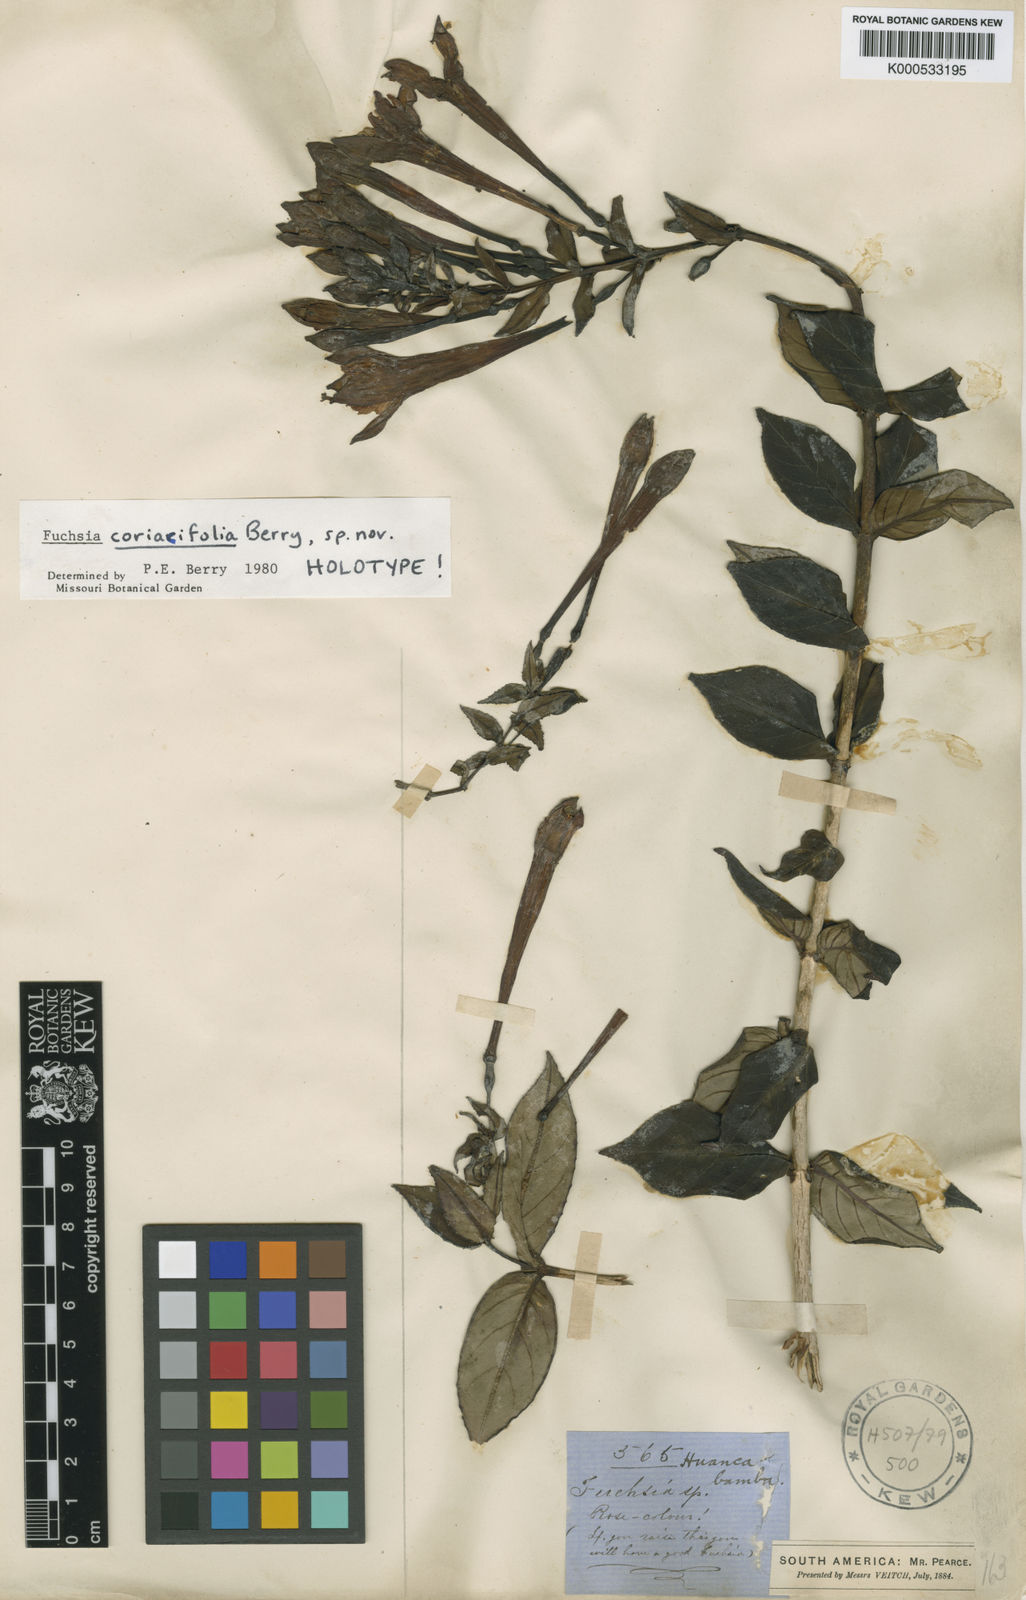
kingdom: Plantae
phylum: Tracheophyta
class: Magnoliopsida
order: Myrtales
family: Onagraceae
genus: Fuchsia
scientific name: Fuchsia
